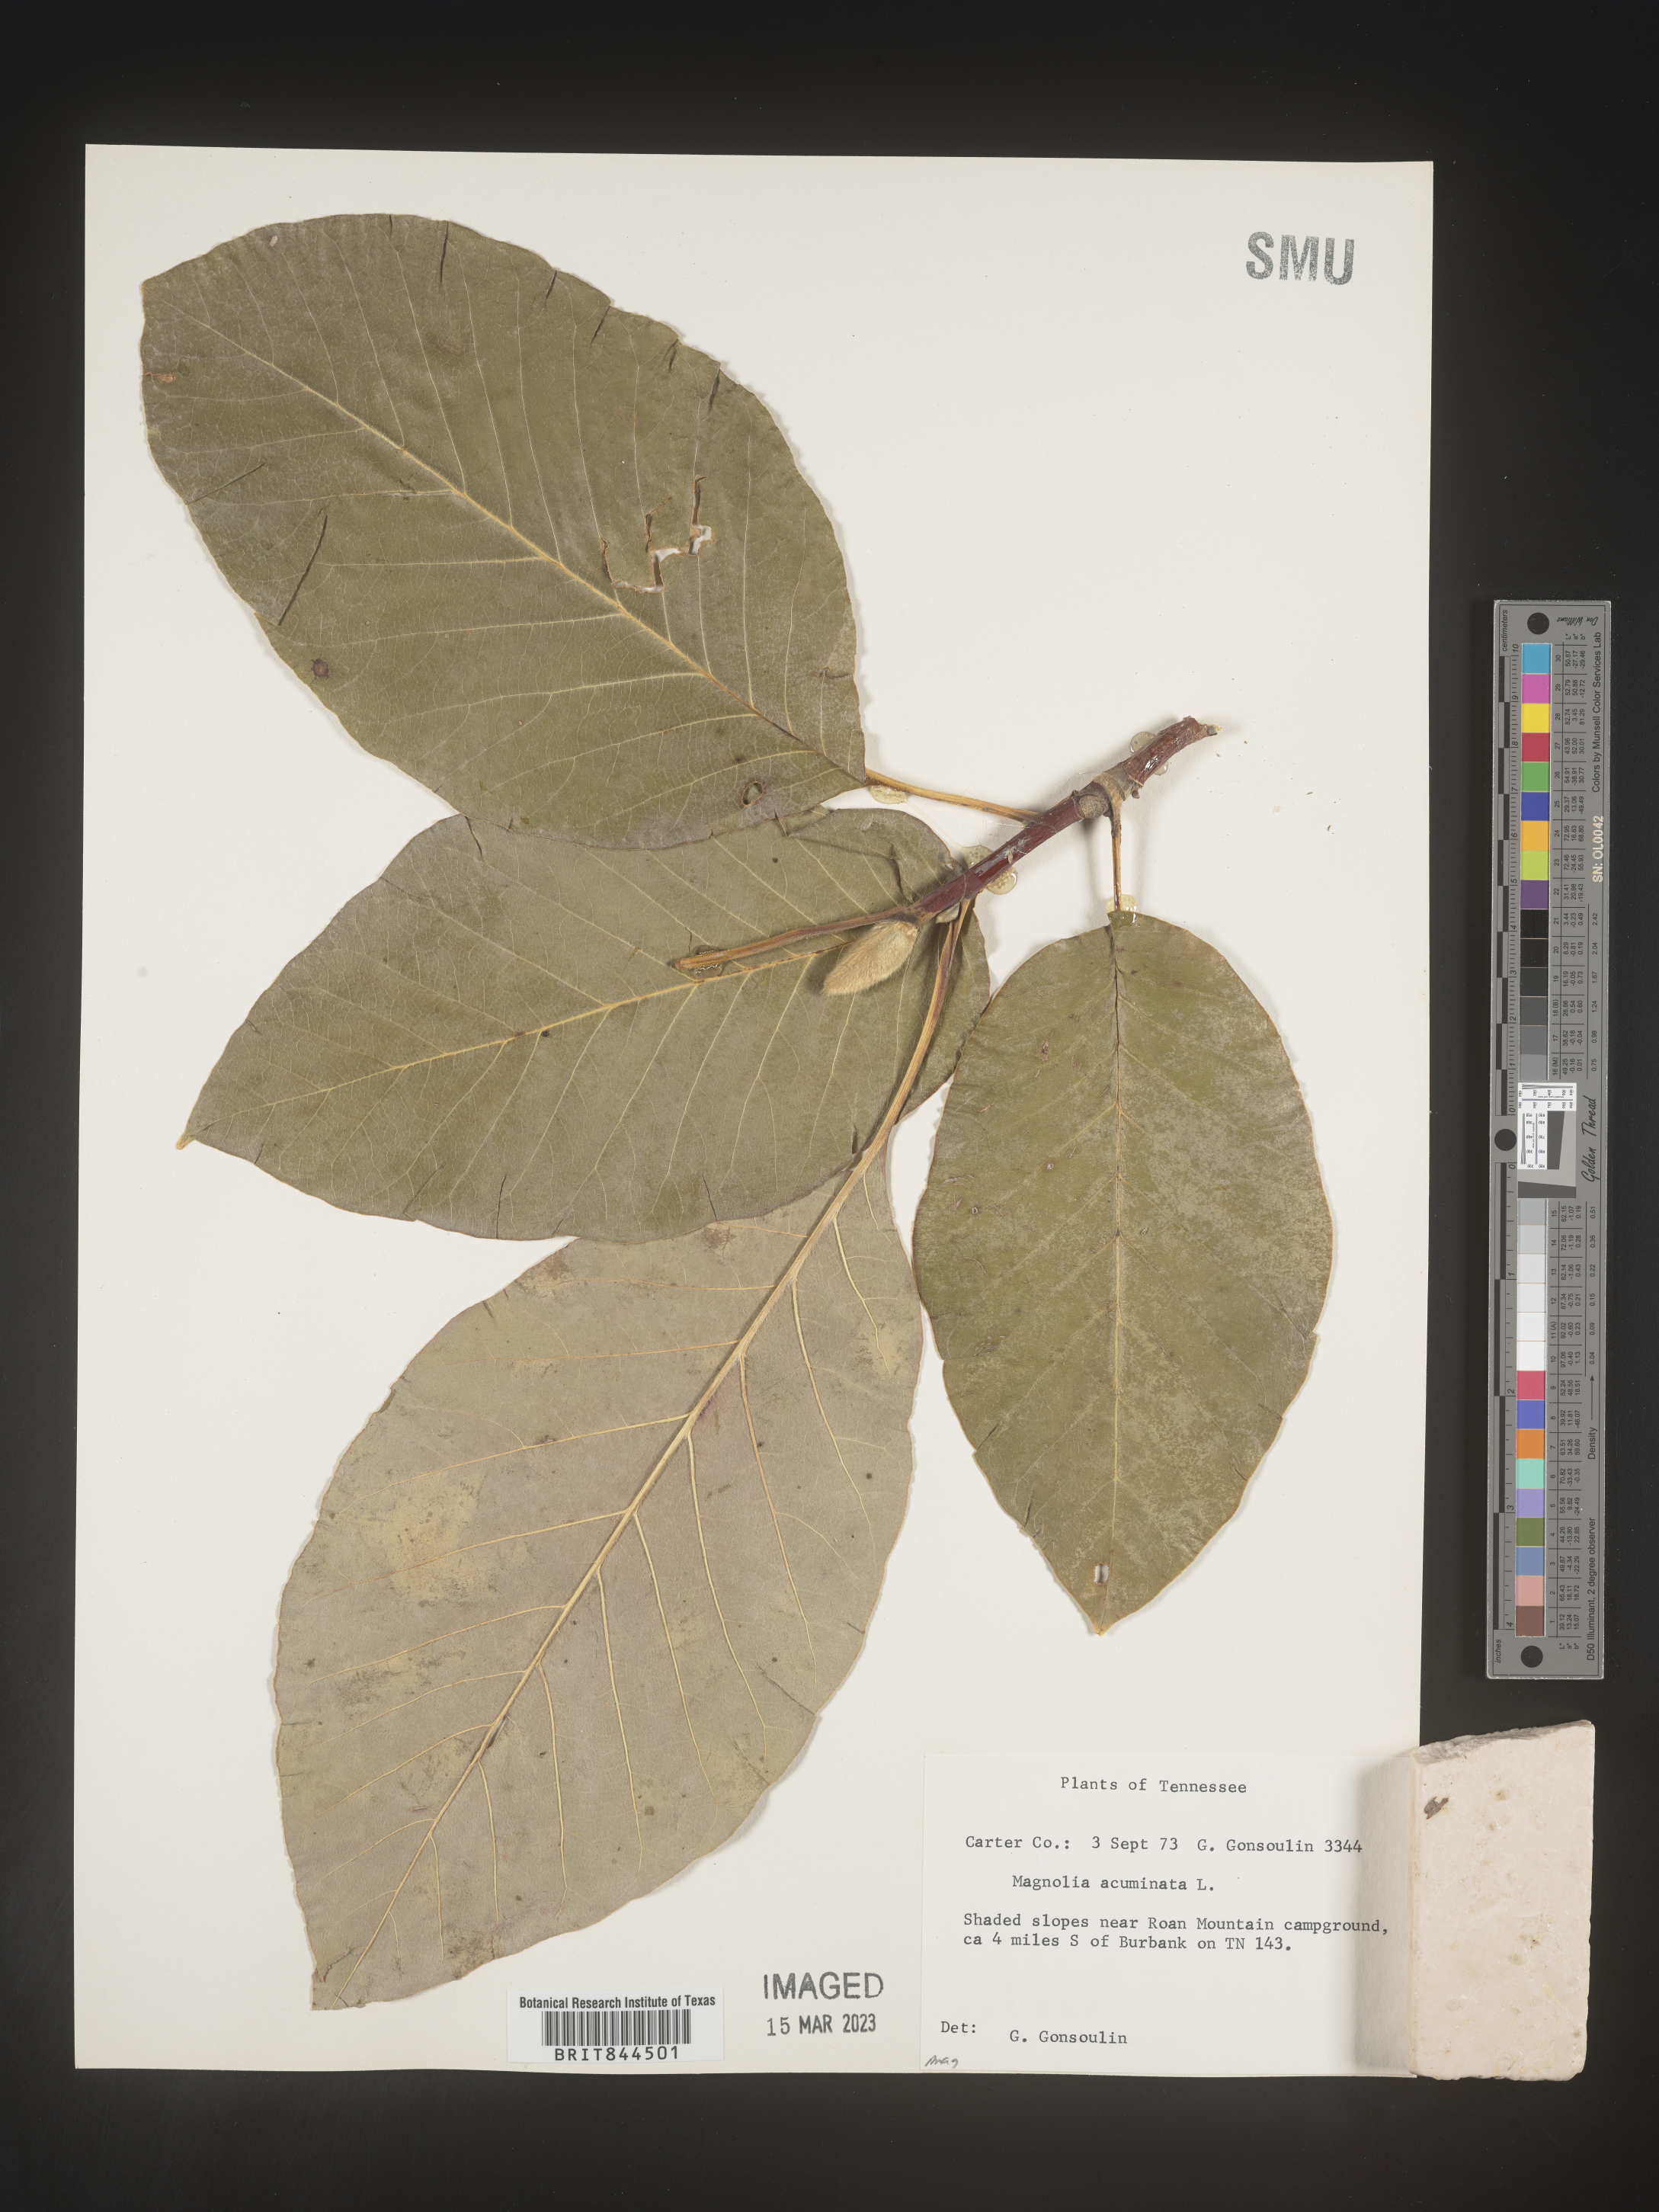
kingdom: Plantae
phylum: Tracheophyta
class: Magnoliopsida
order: Magnoliales
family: Magnoliaceae
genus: Magnolia
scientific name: Magnolia acuminata
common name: Cucumber magnolia
